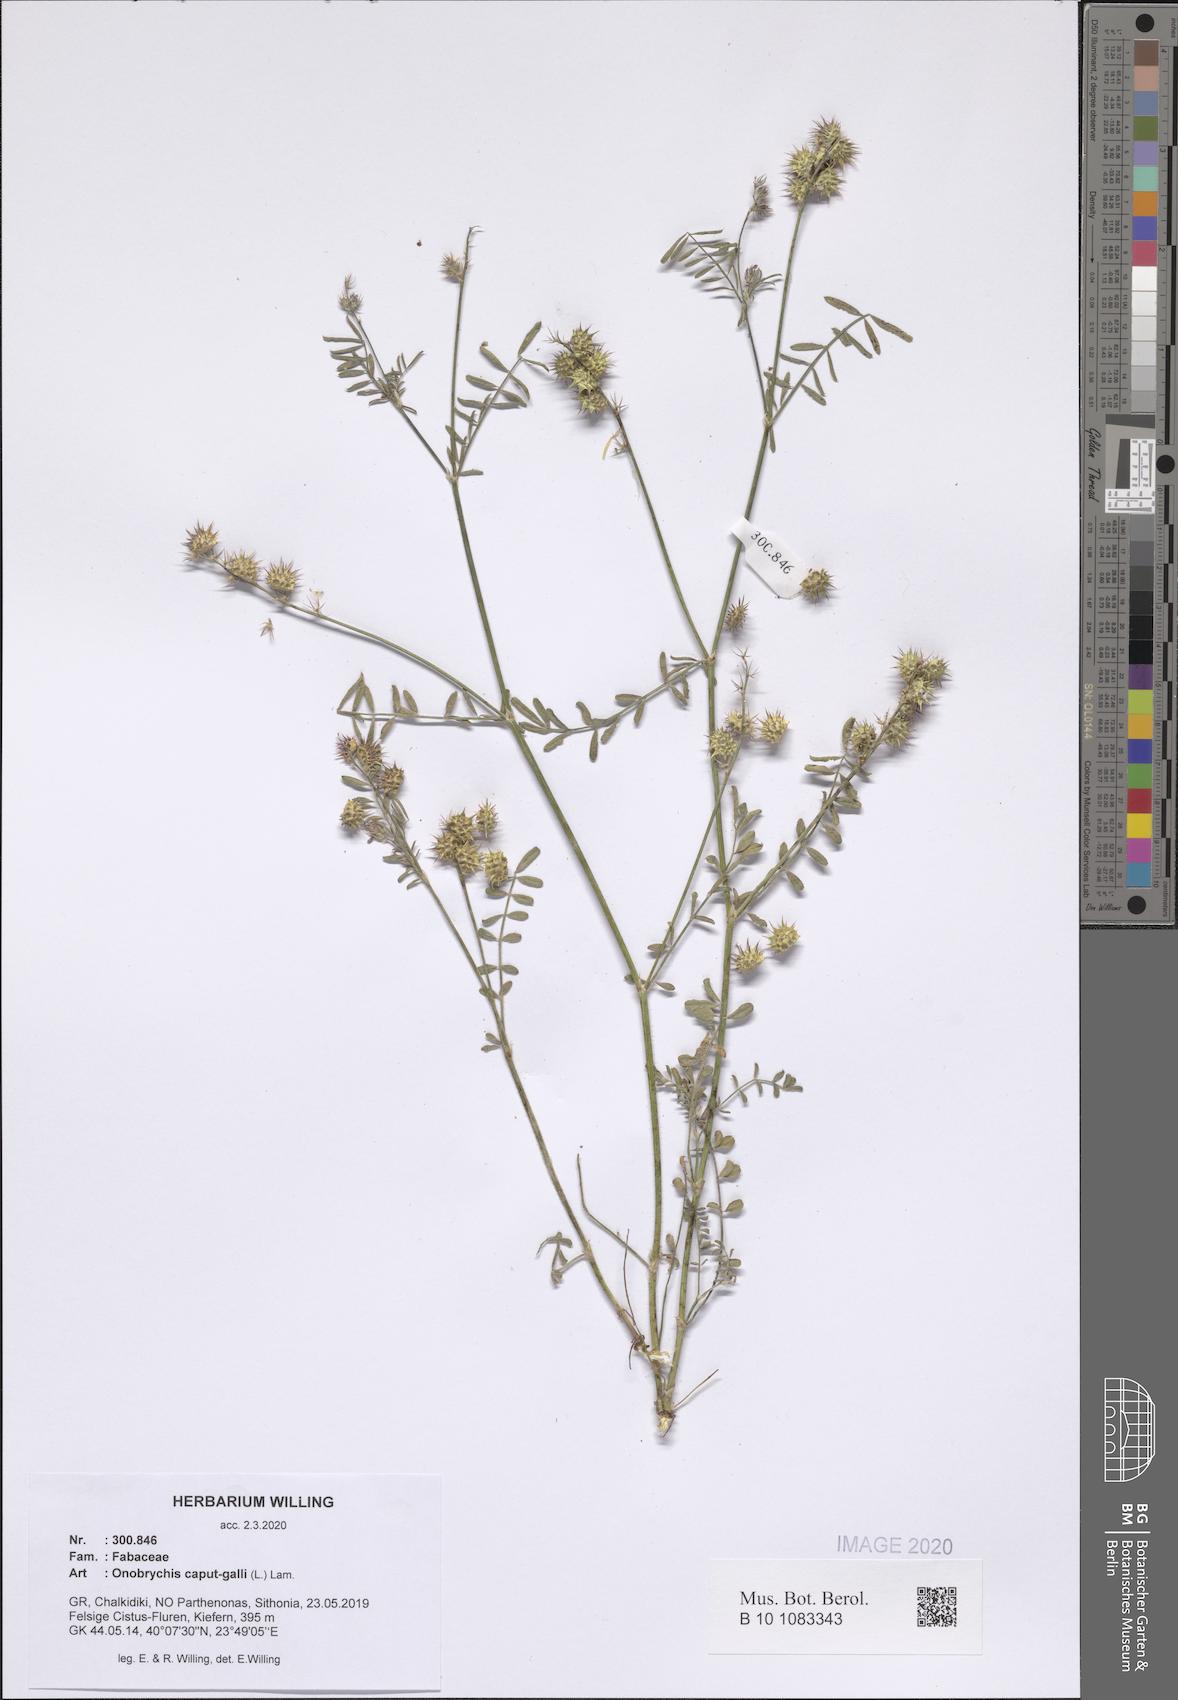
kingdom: Plantae
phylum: Tracheophyta
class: Magnoliopsida
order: Fabales
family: Fabaceae
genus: Onobrychis
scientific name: Onobrychis caput-galli
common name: Cockscomb sainfoin
